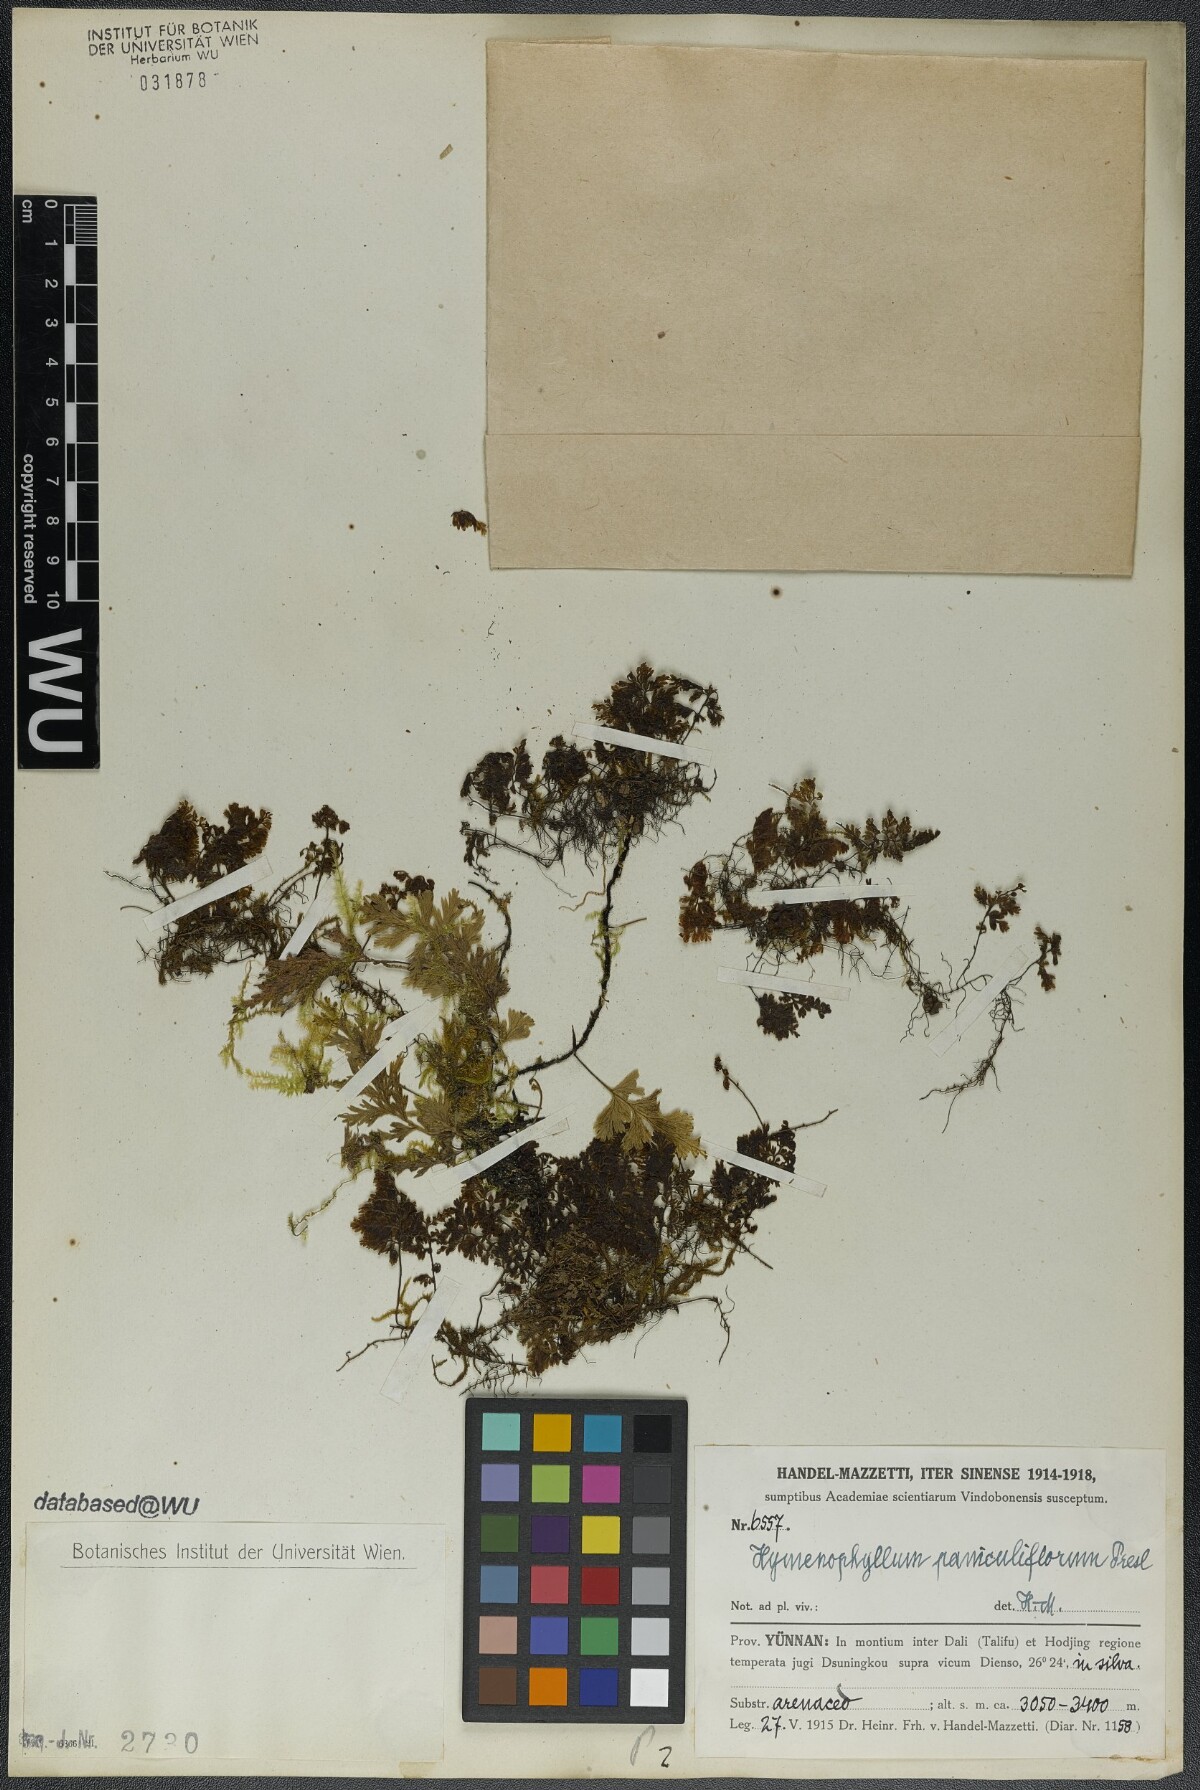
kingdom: Plantae
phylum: Tracheophyta
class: Polypodiopsida
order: Hymenophyllales
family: Hymenophyllaceae
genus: Hymenophyllum
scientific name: Hymenophyllum paniculiflorum
